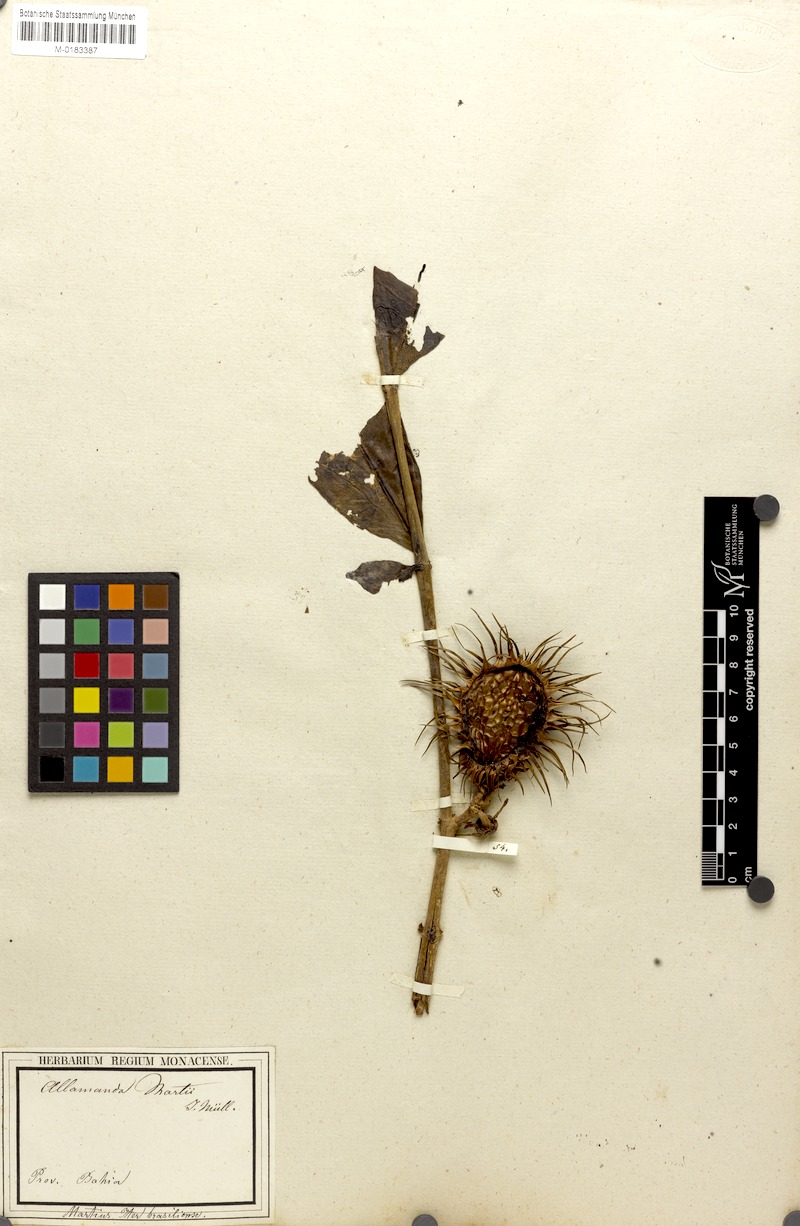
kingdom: Plantae
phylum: Tracheophyta
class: Magnoliopsida
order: Gentianales
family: Apocynaceae
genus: Allamanda
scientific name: Allamanda martii
